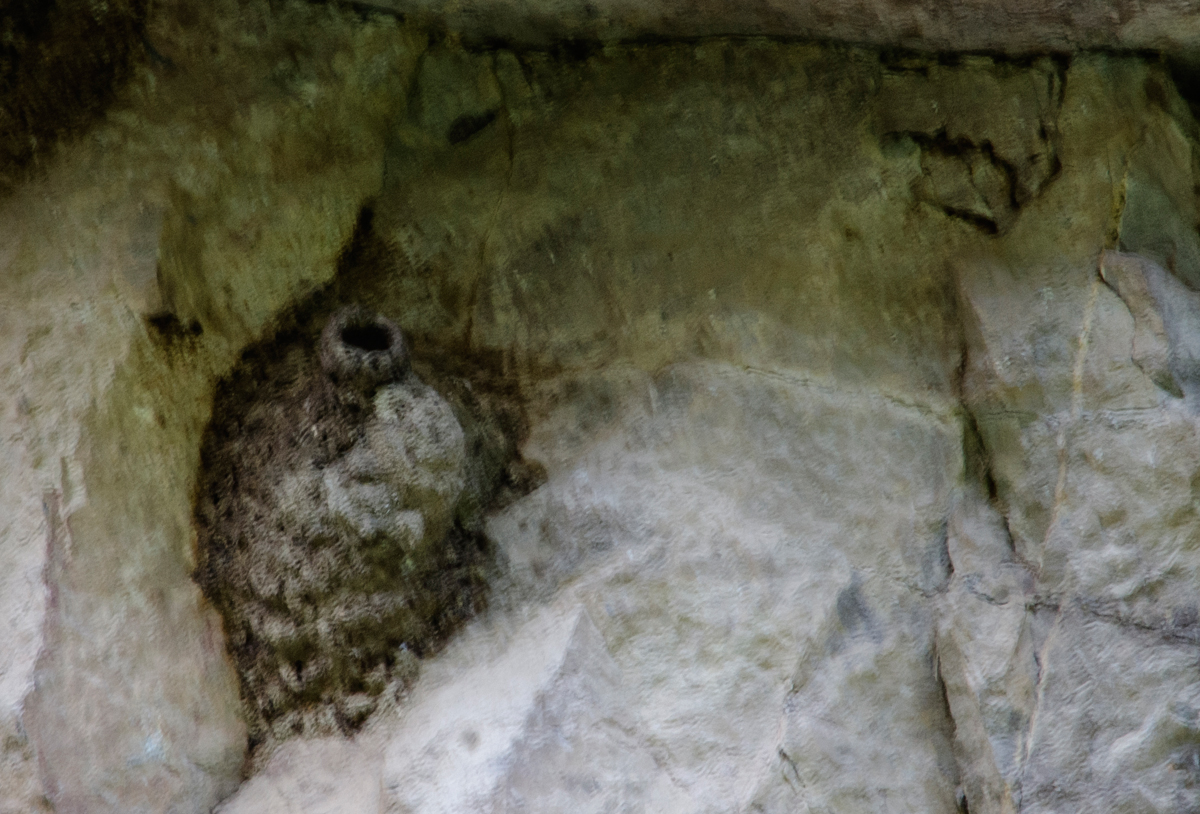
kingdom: Animalia
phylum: Chordata
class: Aves
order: Passeriformes
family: Sittidae
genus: Sitta
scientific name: Sitta neumayer
